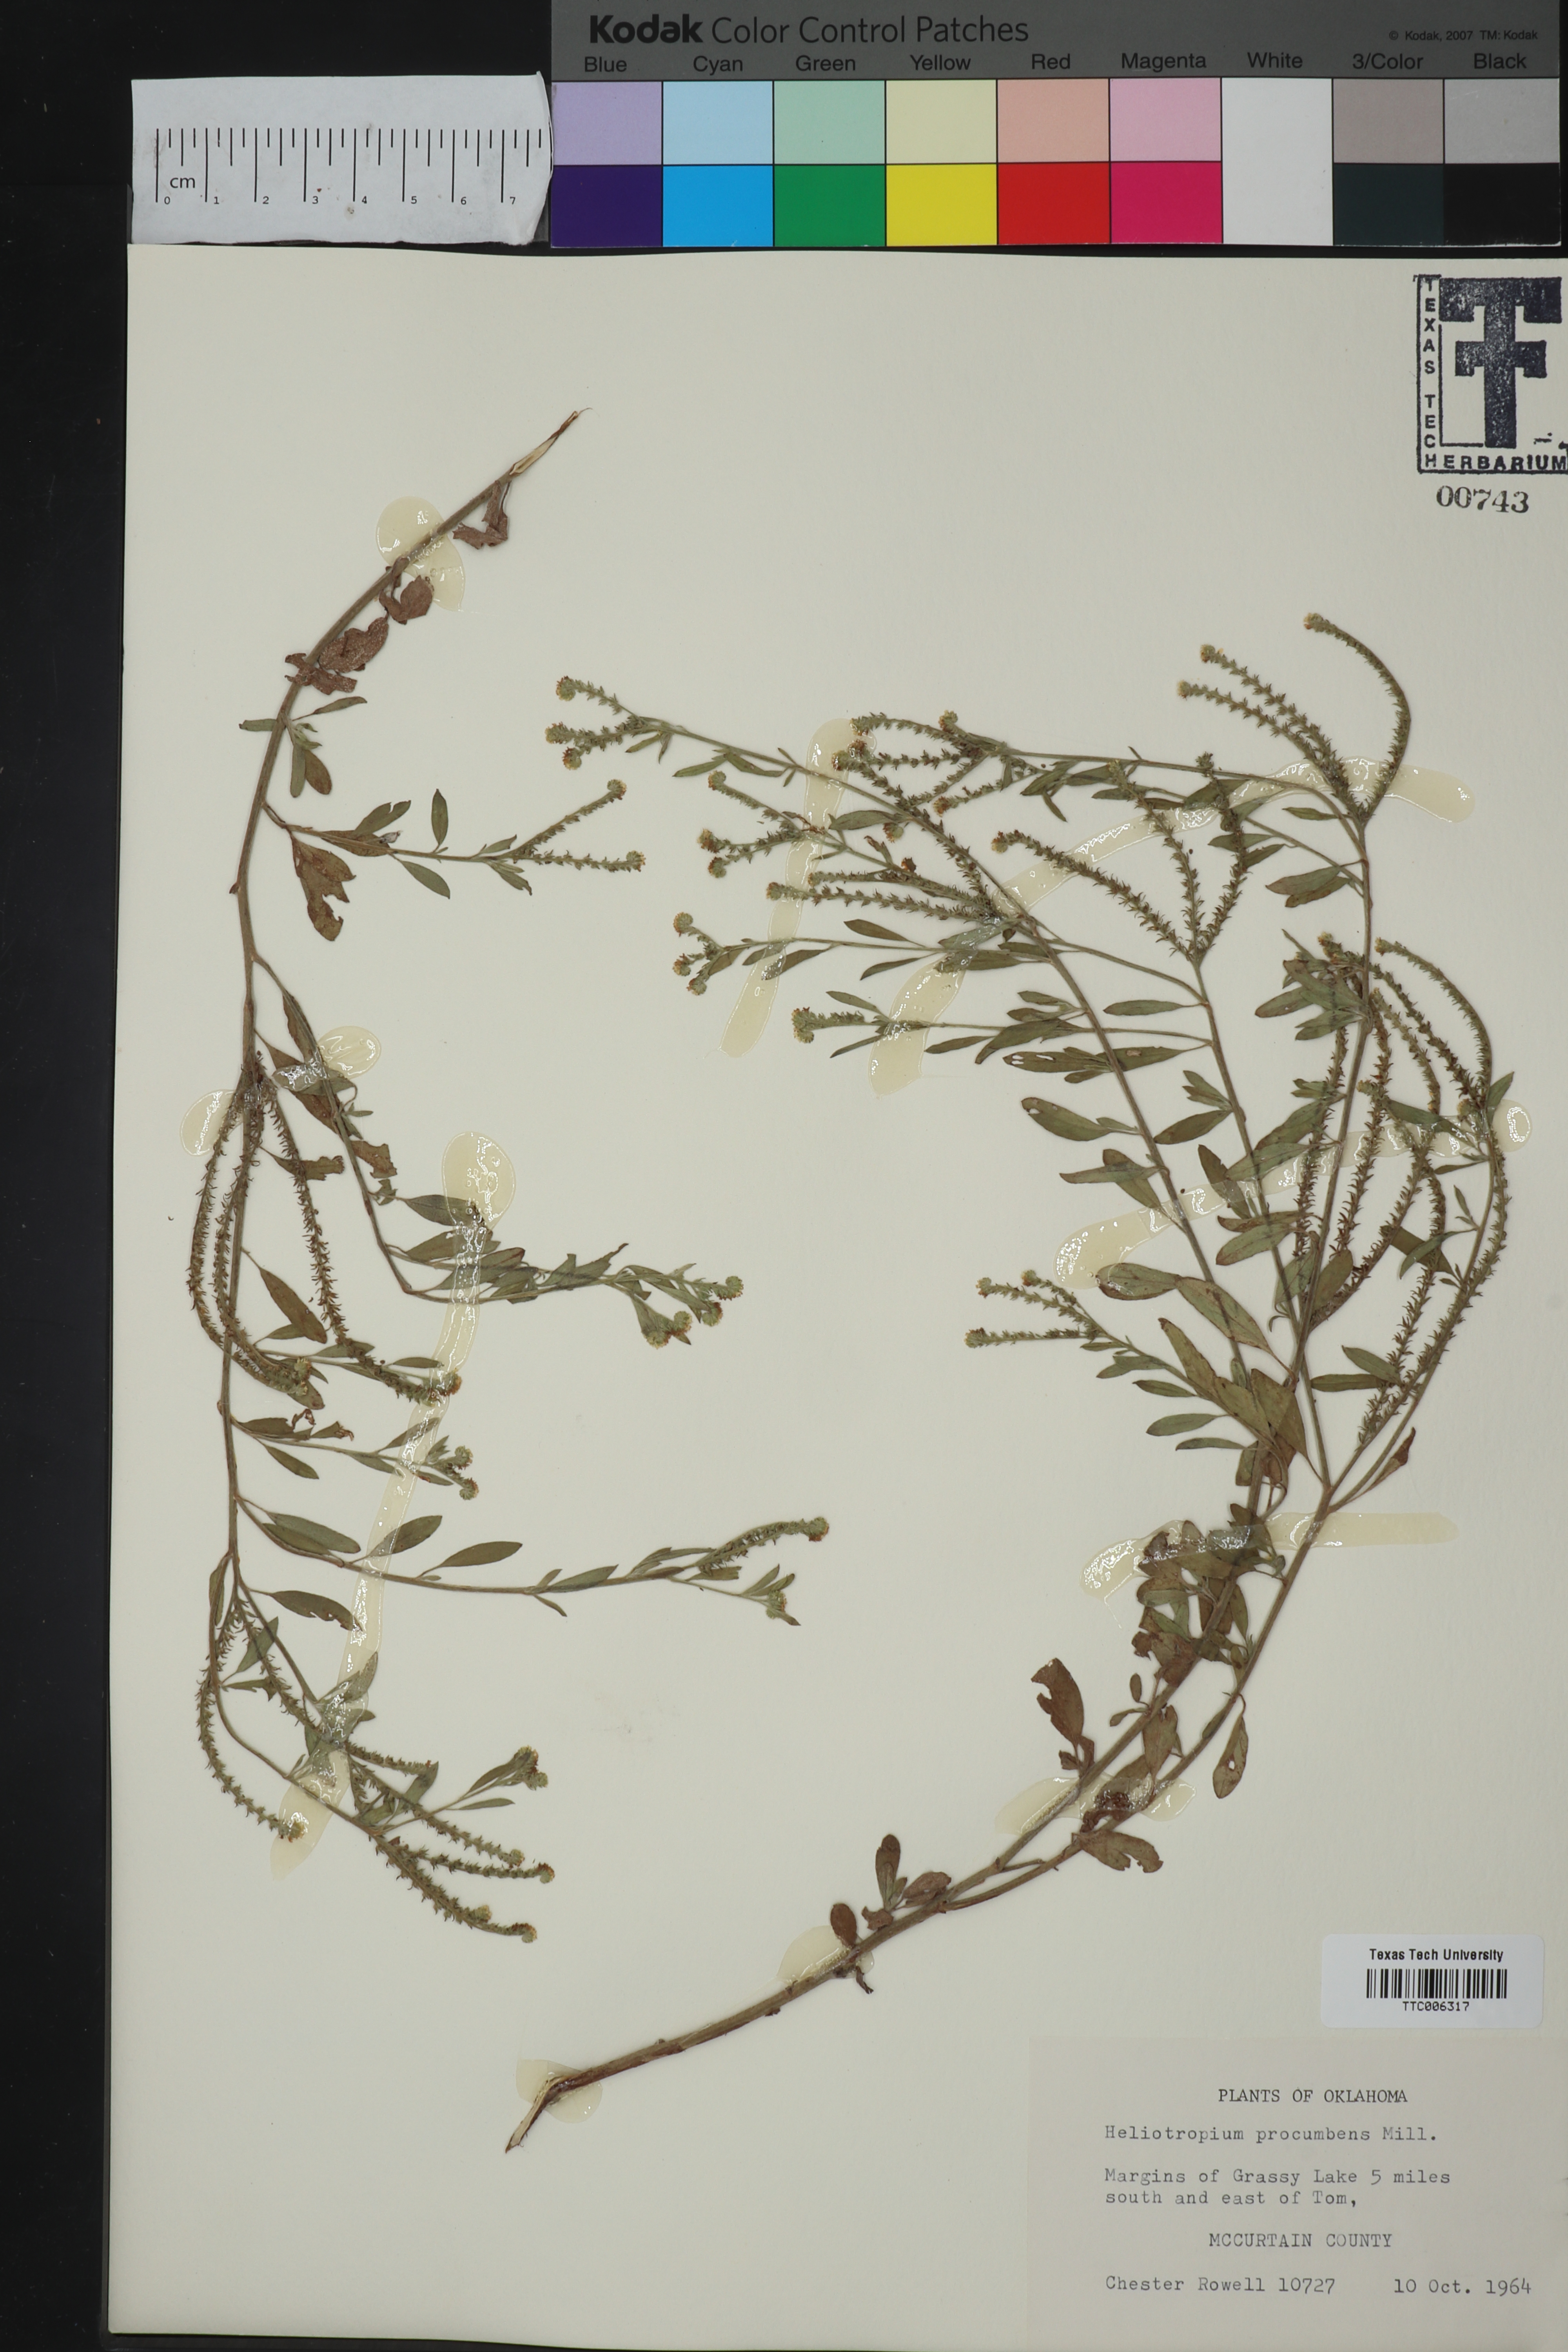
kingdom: Plantae
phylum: Tracheophyta
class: Magnoliopsida
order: Boraginales
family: Heliotropiaceae
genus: Euploca
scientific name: Euploca procumbens
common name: Fourspike heliotrope
